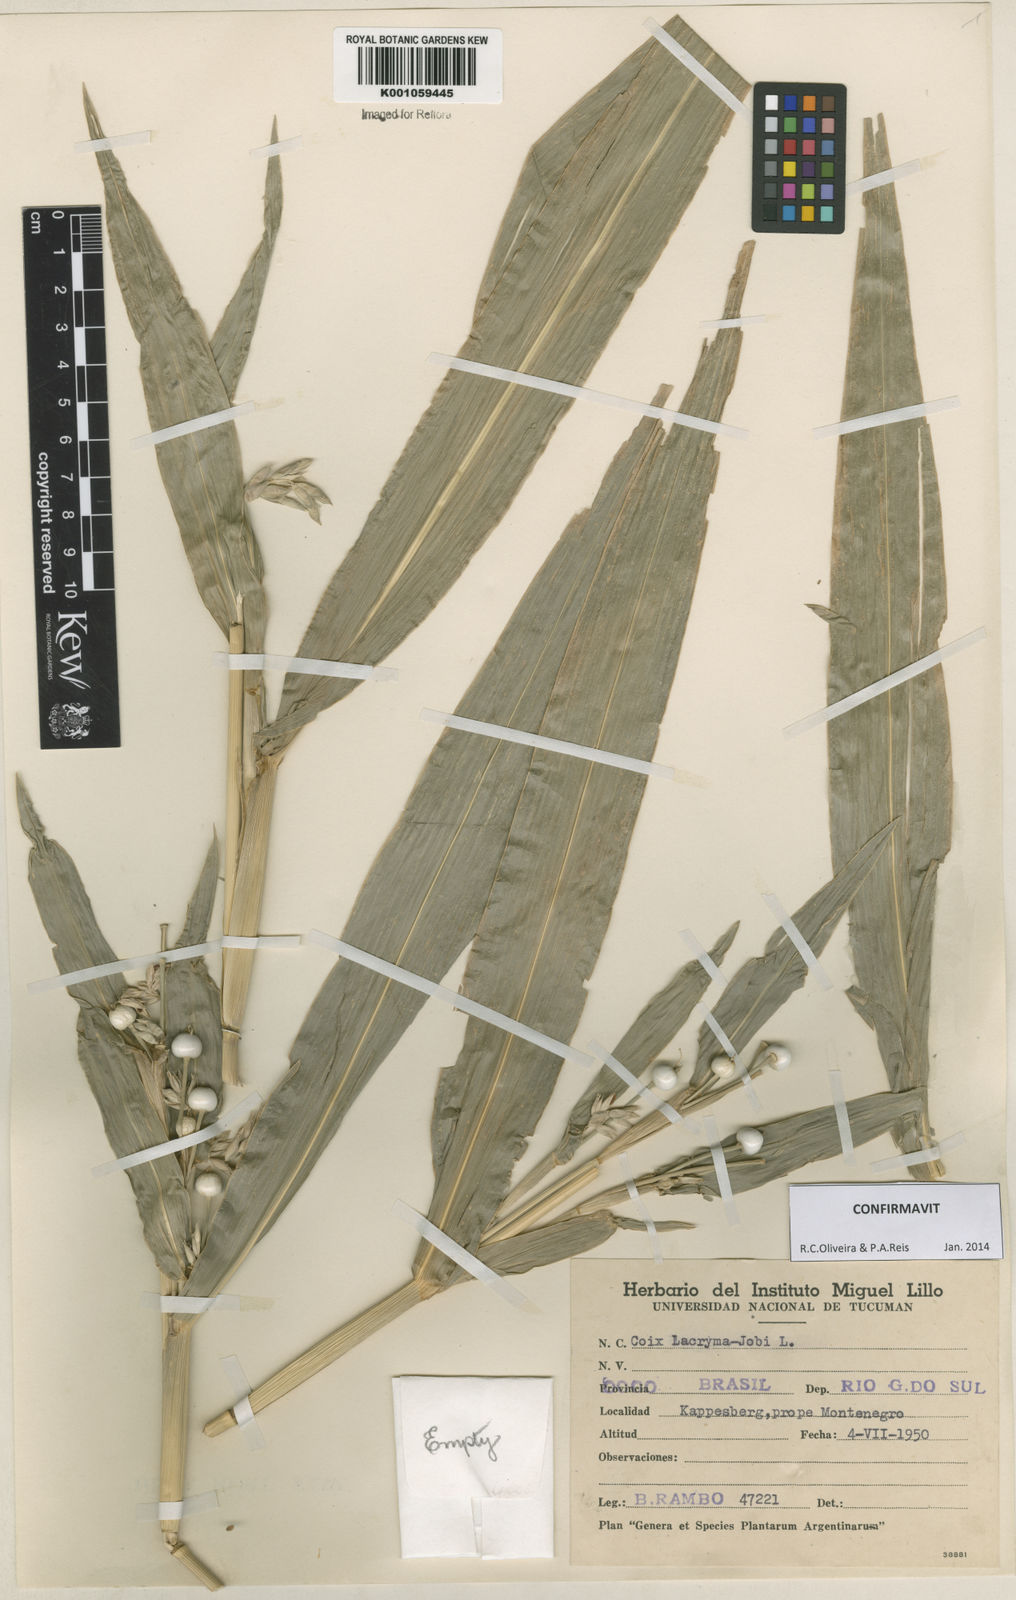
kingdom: Plantae
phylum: Tracheophyta
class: Liliopsida
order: Poales
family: Poaceae
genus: Coix
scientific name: Coix lacryma-jobi
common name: Job's tears
